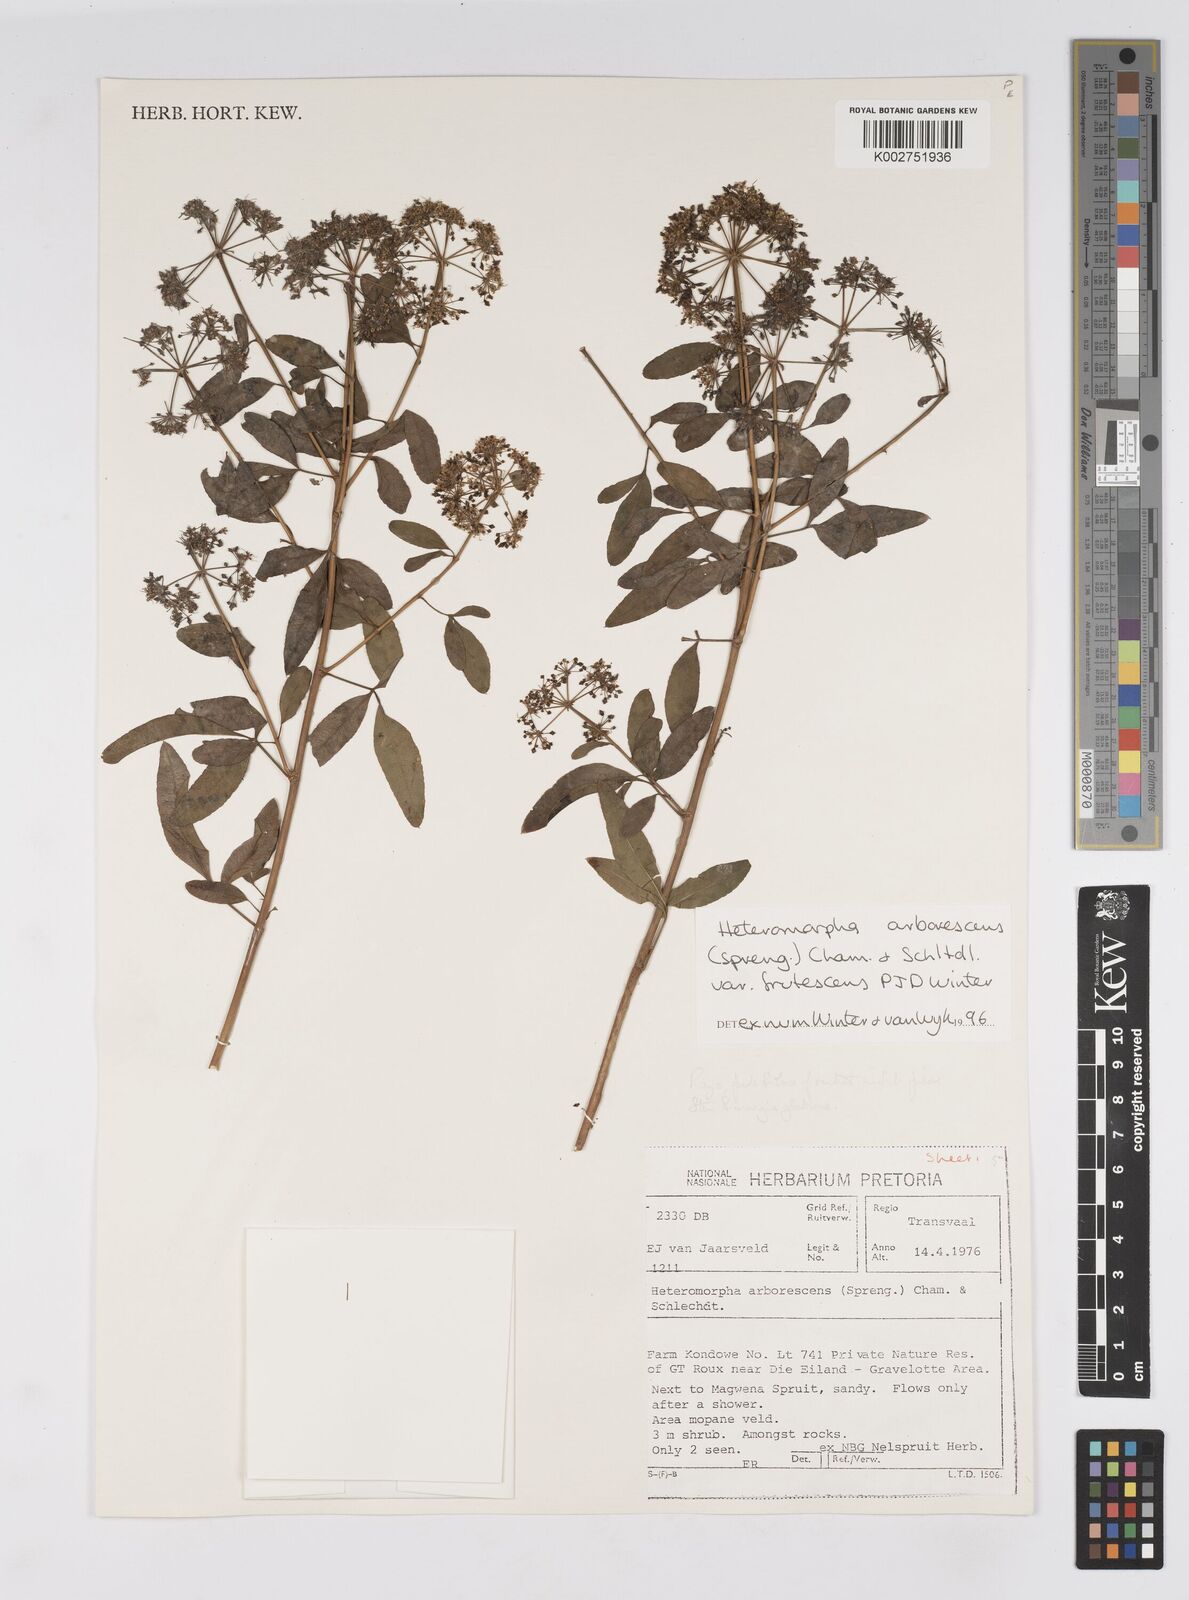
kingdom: Plantae
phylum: Tracheophyta
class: Magnoliopsida
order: Apiales
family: Apiaceae
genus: Heteromorpha
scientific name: Heteromorpha arborescens
